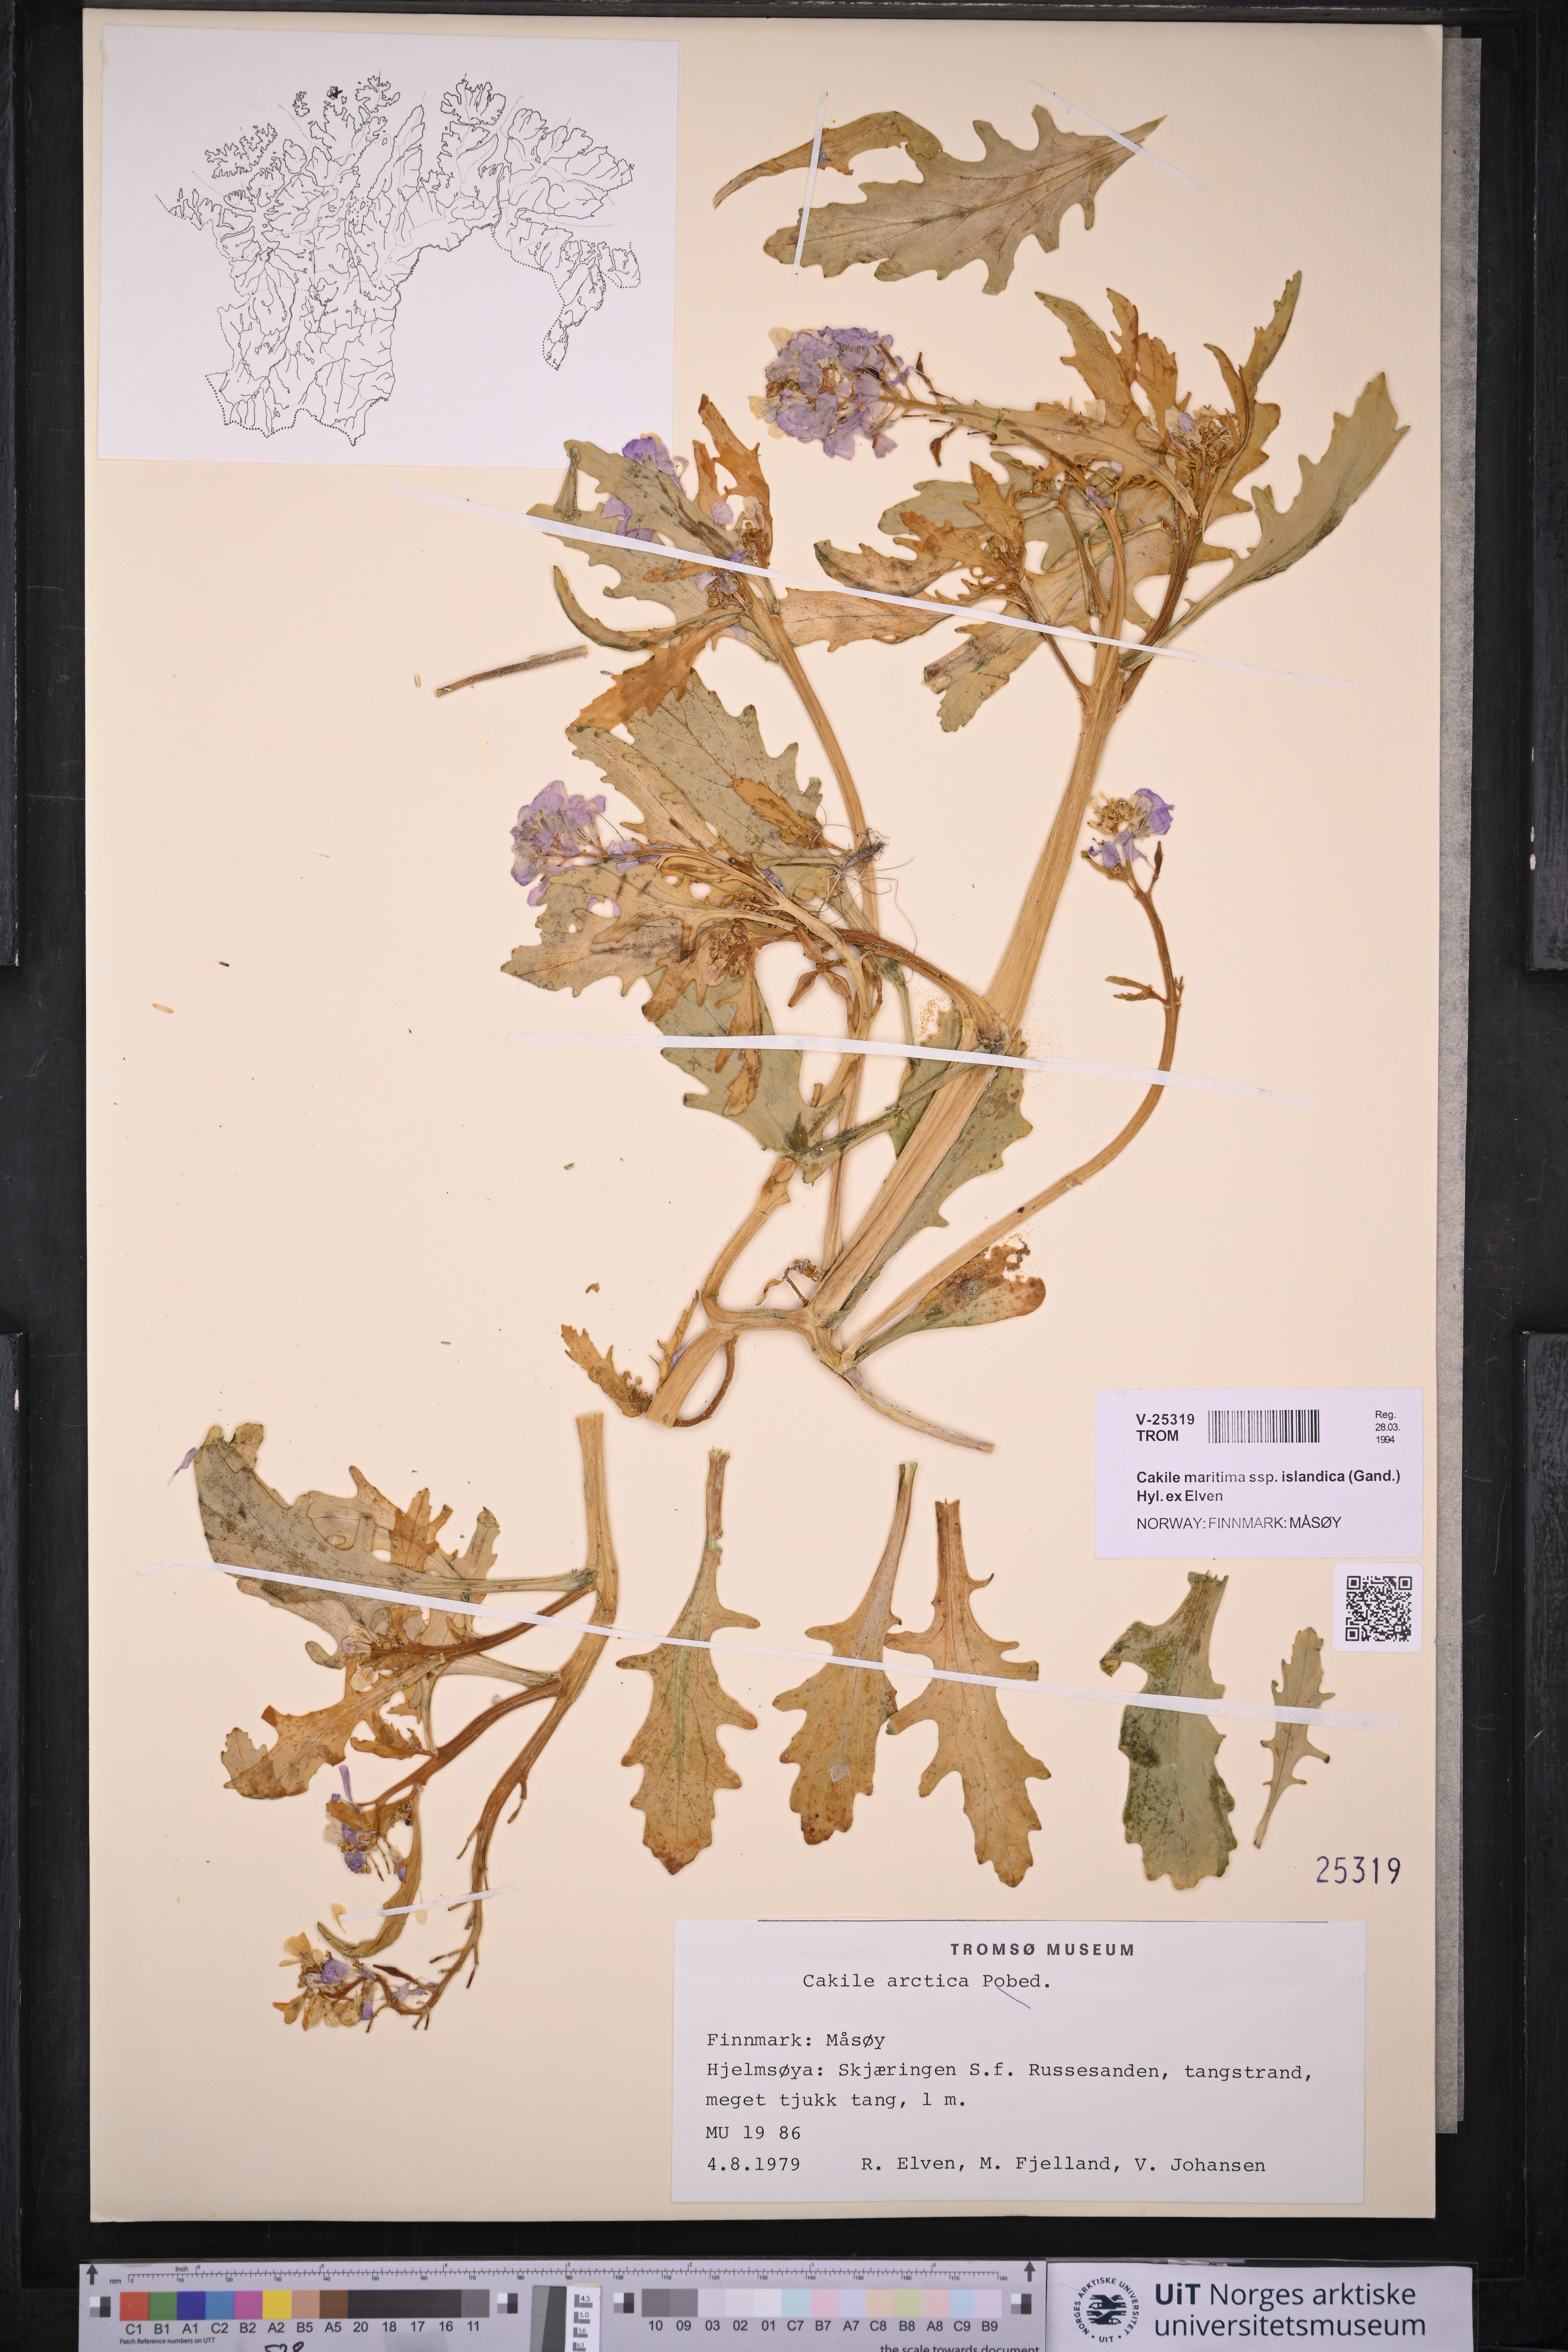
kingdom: Plantae
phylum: Tracheophyta
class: Magnoliopsida
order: Brassicales
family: Brassicaceae
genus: Cakile
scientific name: Cakile arctica
